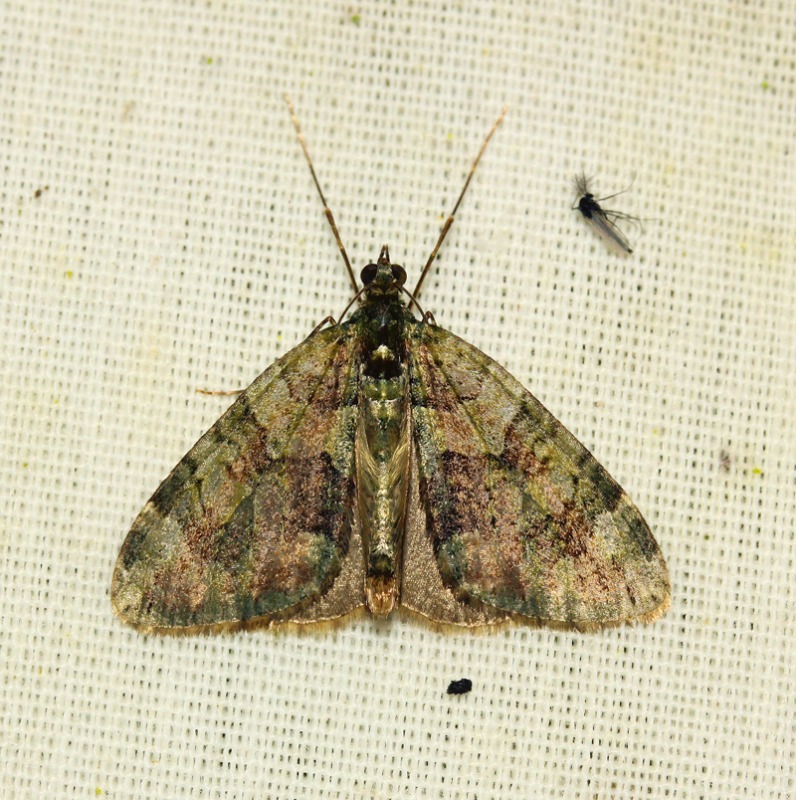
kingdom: Animalia
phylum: Arthropoda
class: Insecta
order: Lepidoptera
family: Geometridae
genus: Chloroclysta
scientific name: Chloroclysta siterata
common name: Brungrøn bladmåler
